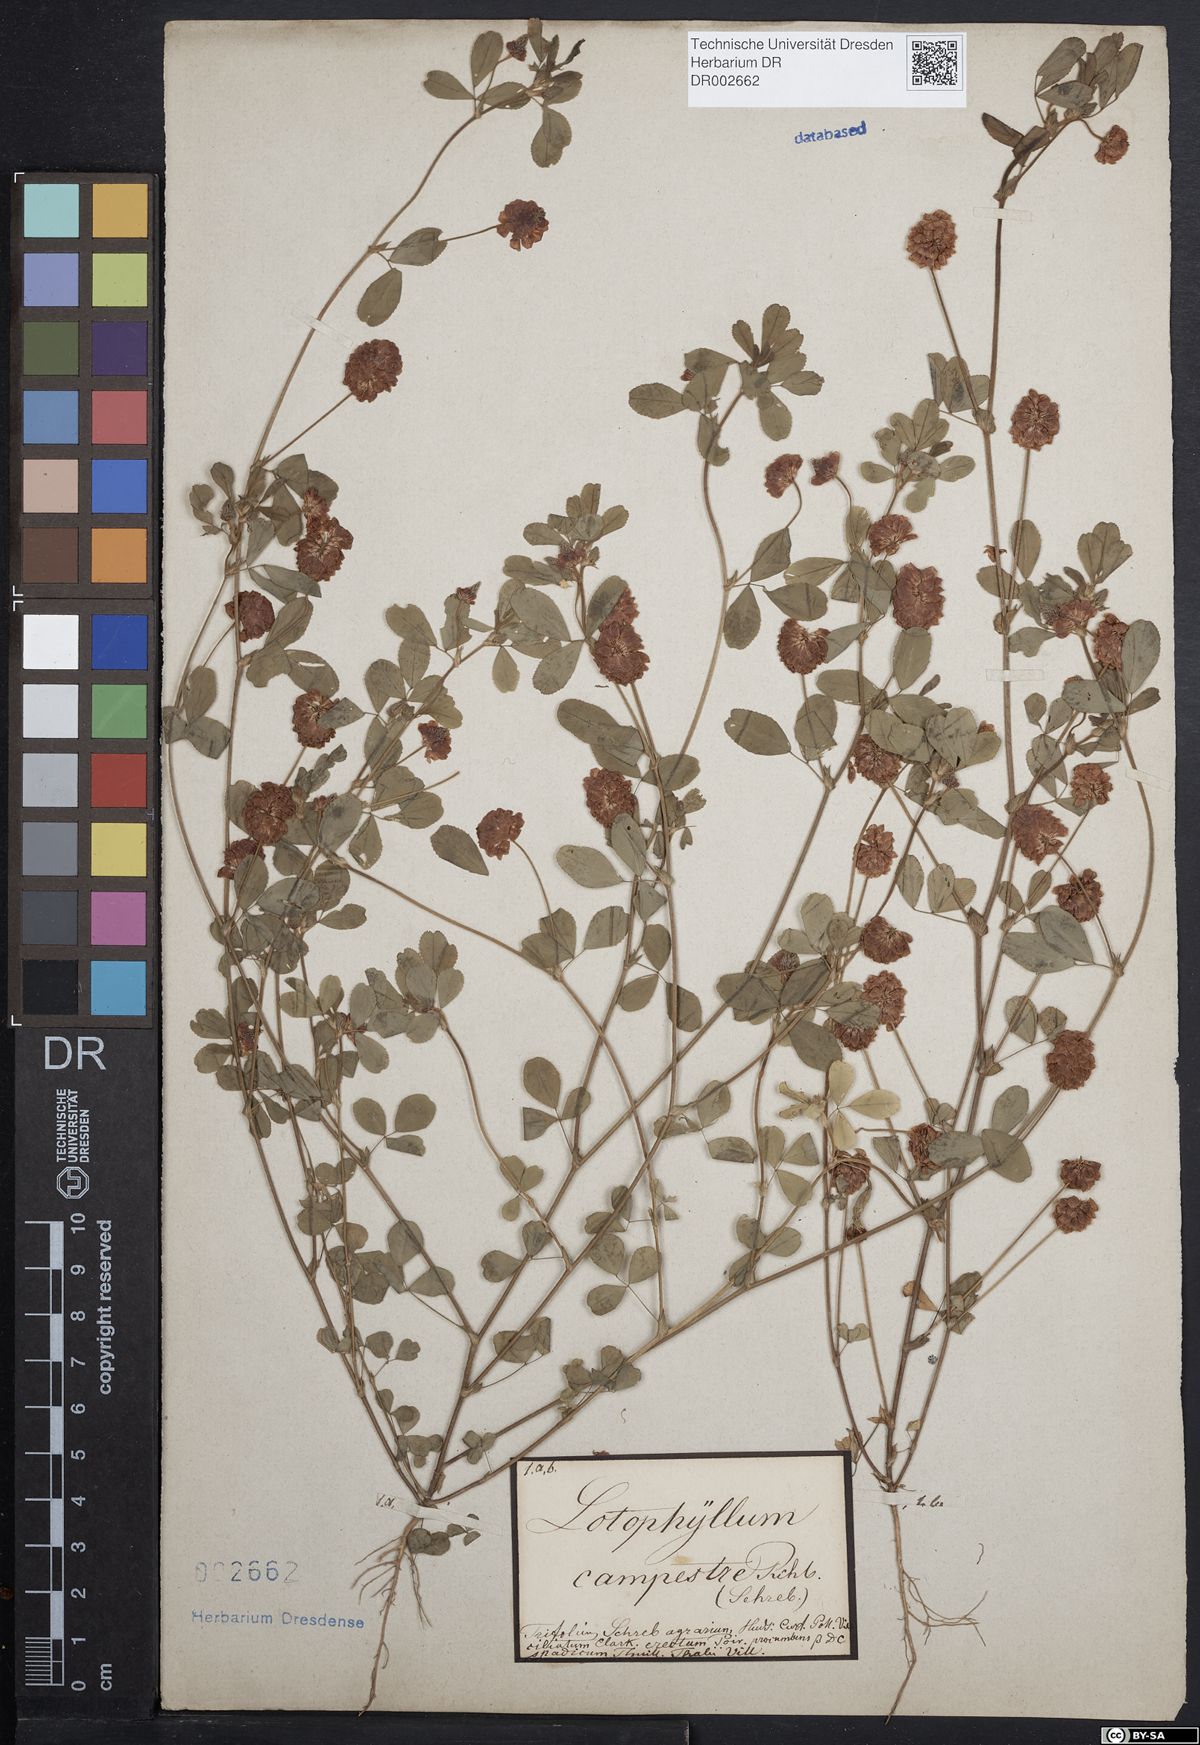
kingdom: Plantae
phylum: Tracheophyta
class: Magnoliopsida
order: Fabales
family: Fabaceae
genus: Trifolium
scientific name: Trifolium campestre
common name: Field clover
